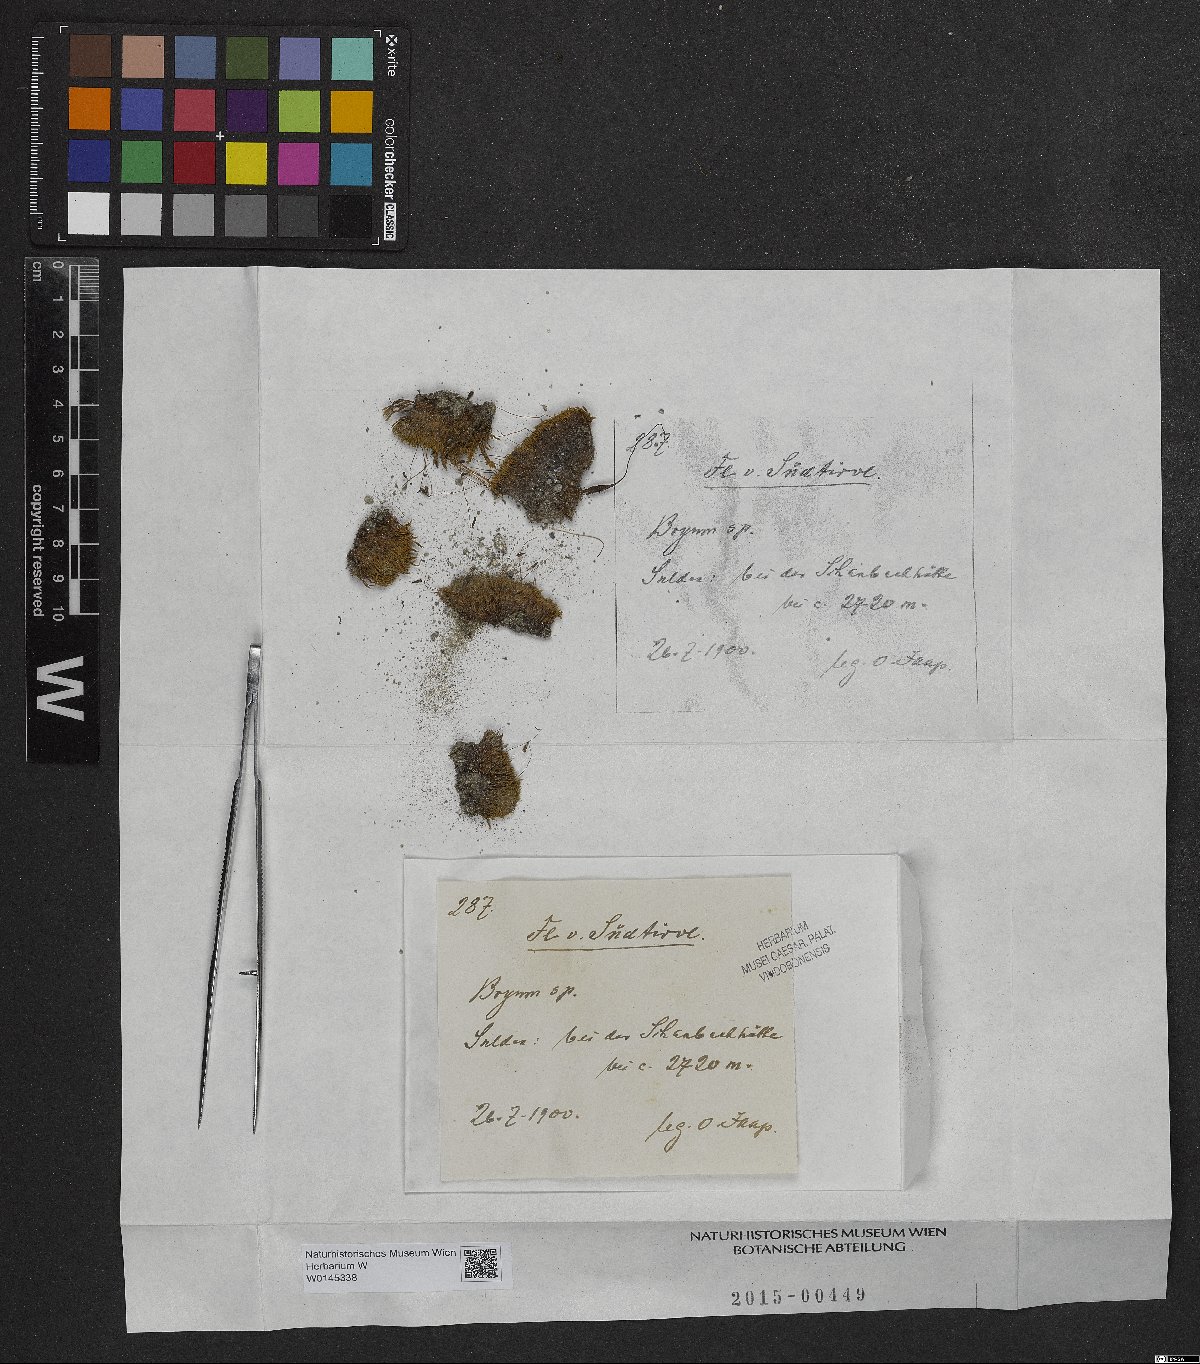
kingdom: Plantae
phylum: Bryophyta
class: Bryopsida
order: Bryales
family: Bryaceae
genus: Bryum
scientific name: Bryum
